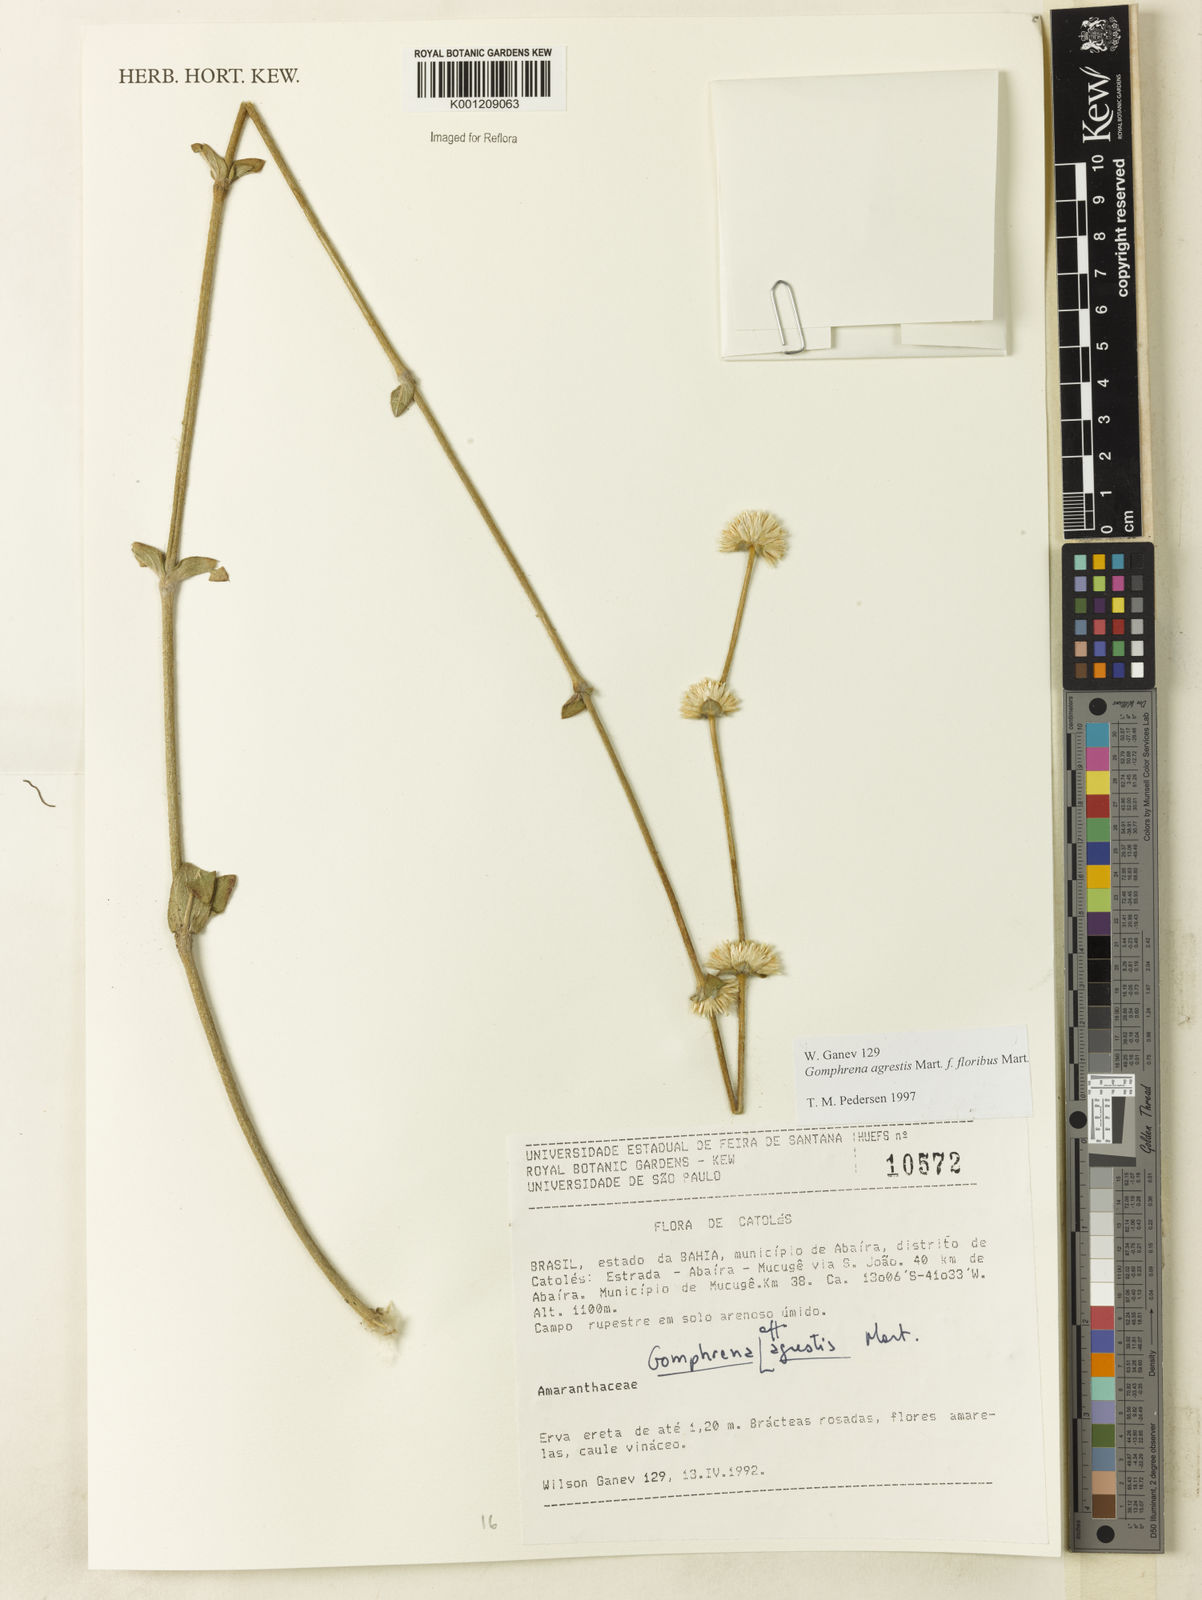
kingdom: Plantae
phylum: Tracheophyta
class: Magnoliopsida
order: Caryophyllales
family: Amaranthaceae
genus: Gomphrena
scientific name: Gomphrena agrestis
